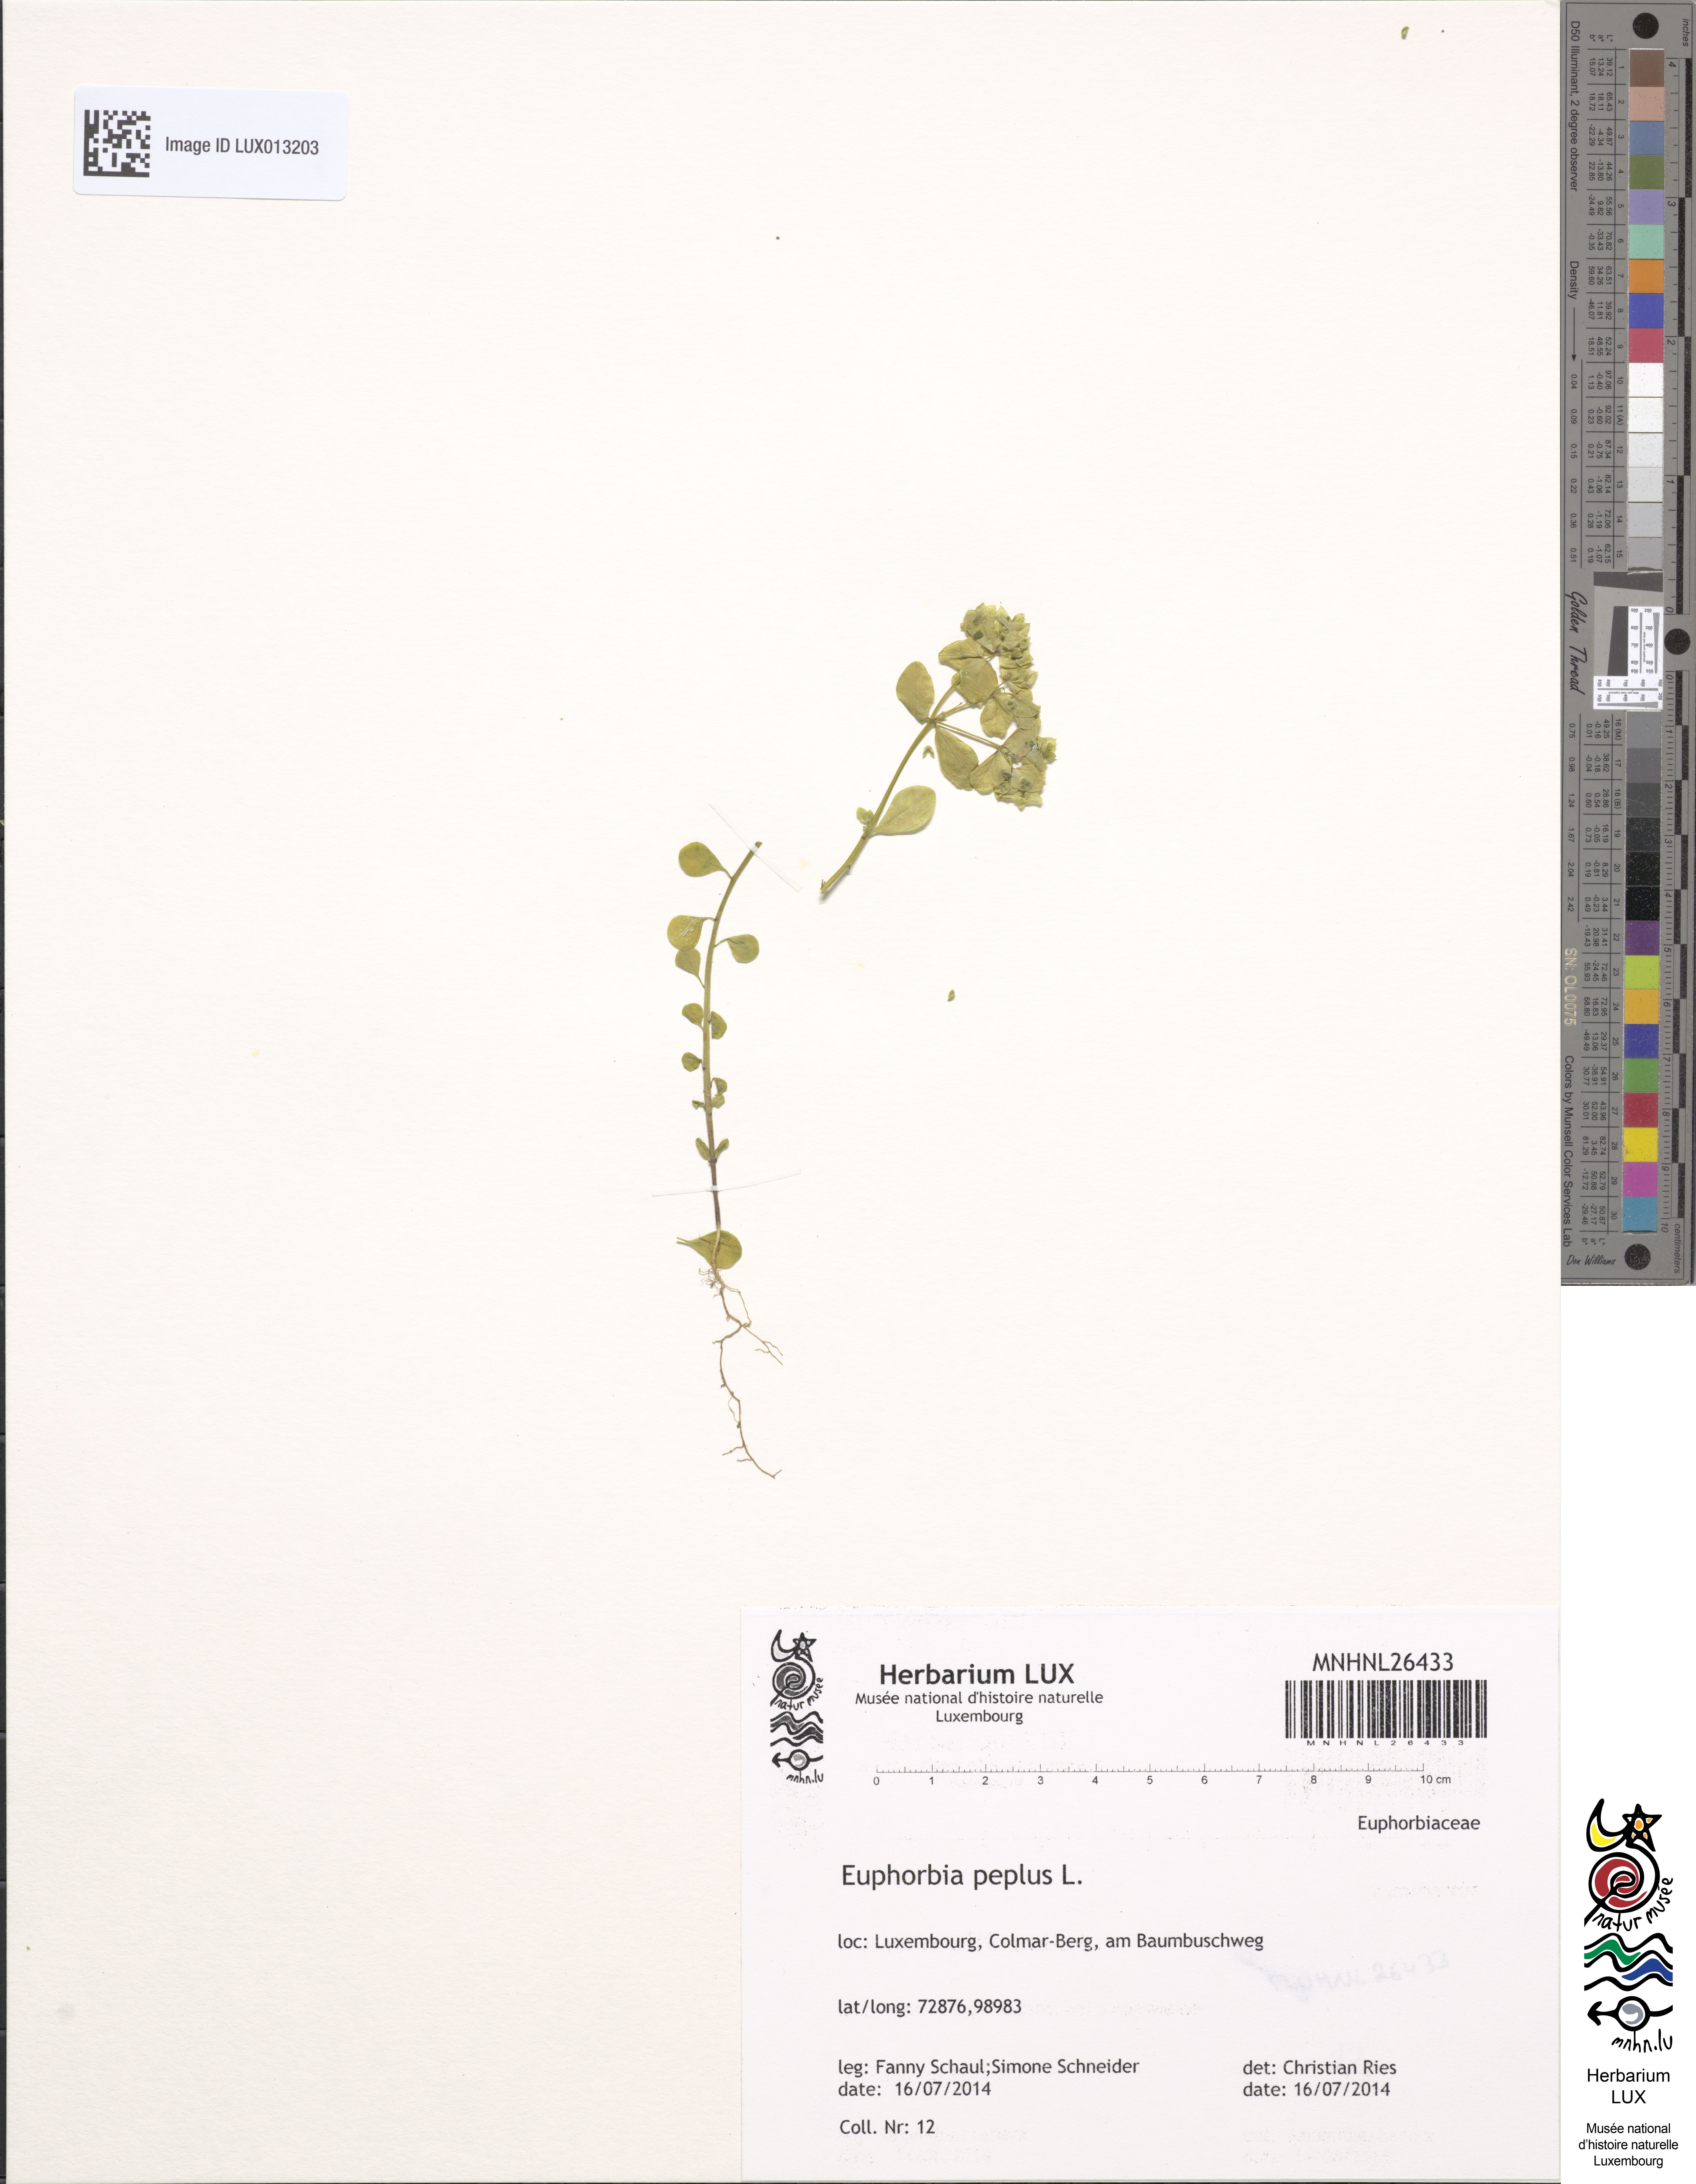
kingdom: Plantae
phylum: Tracheophyta
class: Magnoliopsida
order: Malpighiales
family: Euphorbiaceae
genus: Euphorbia
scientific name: Euphorbia peplus
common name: Petty spurge
